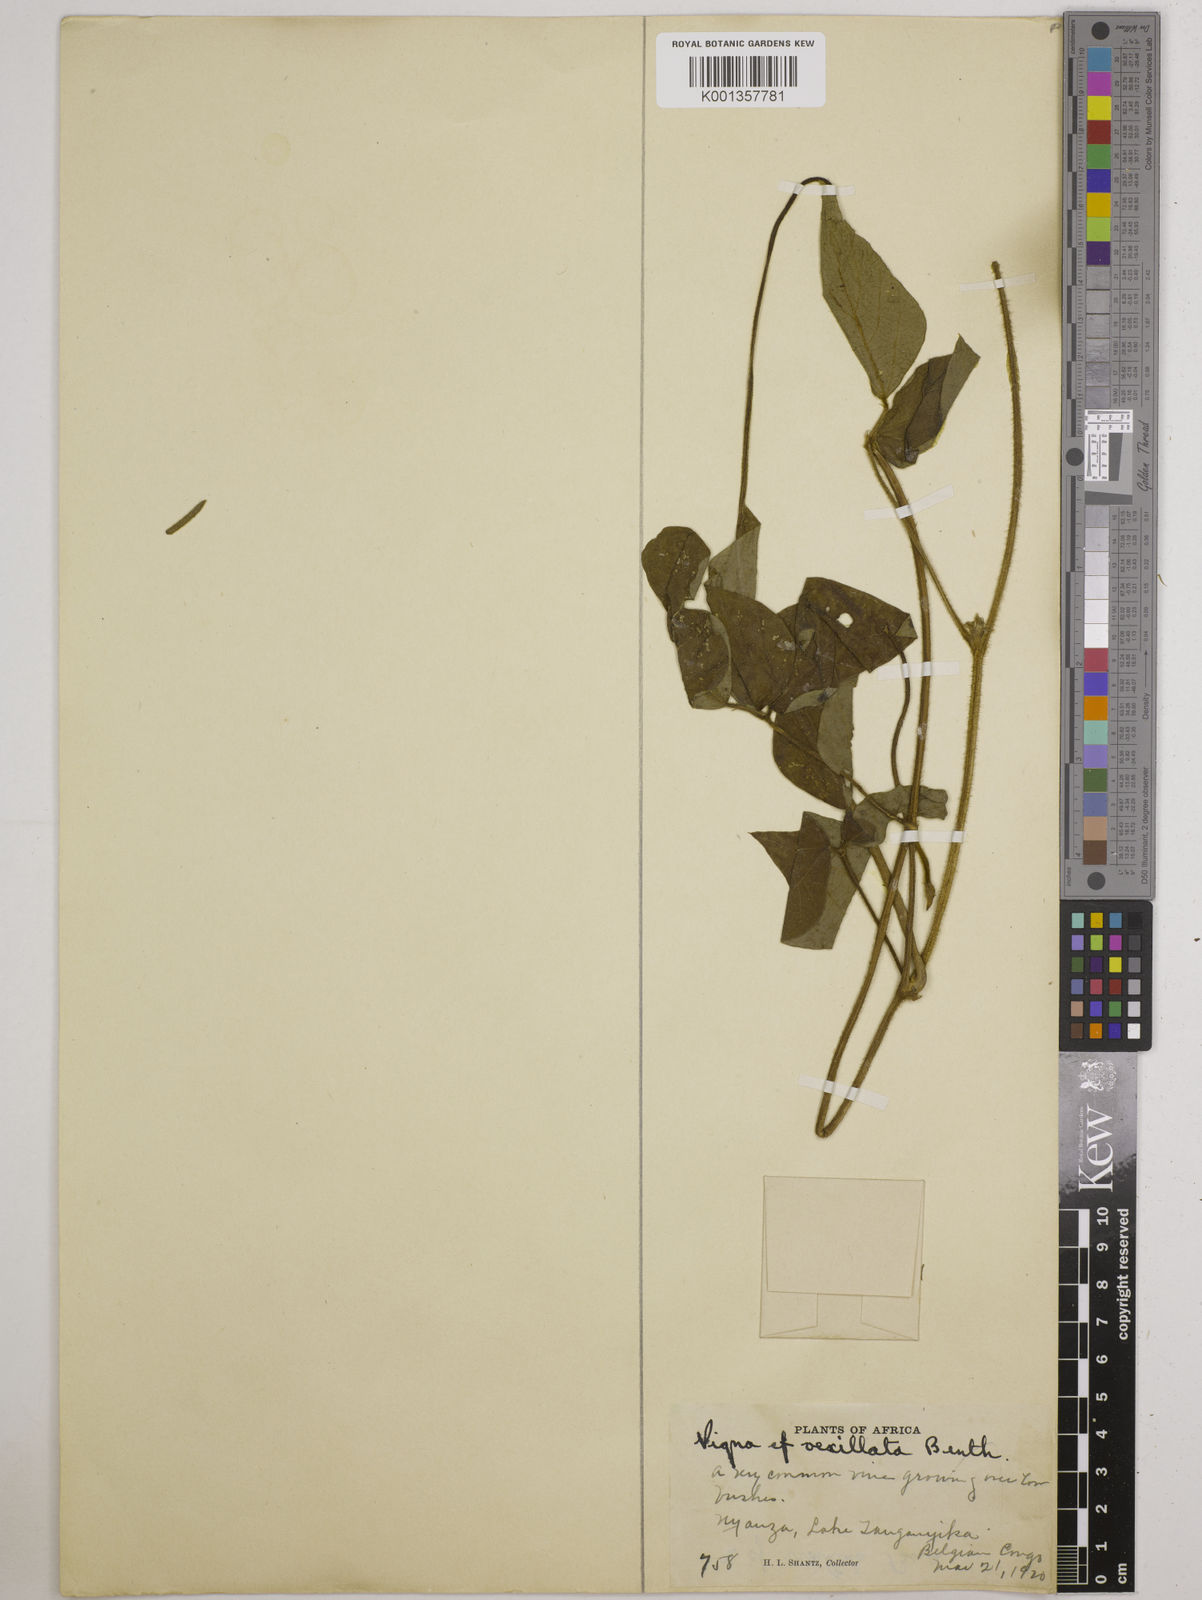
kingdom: Plantae
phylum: Tracheophyta
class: Magnoliopsida
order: Fabales
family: Fabaceae
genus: Vigna
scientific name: Vigna
